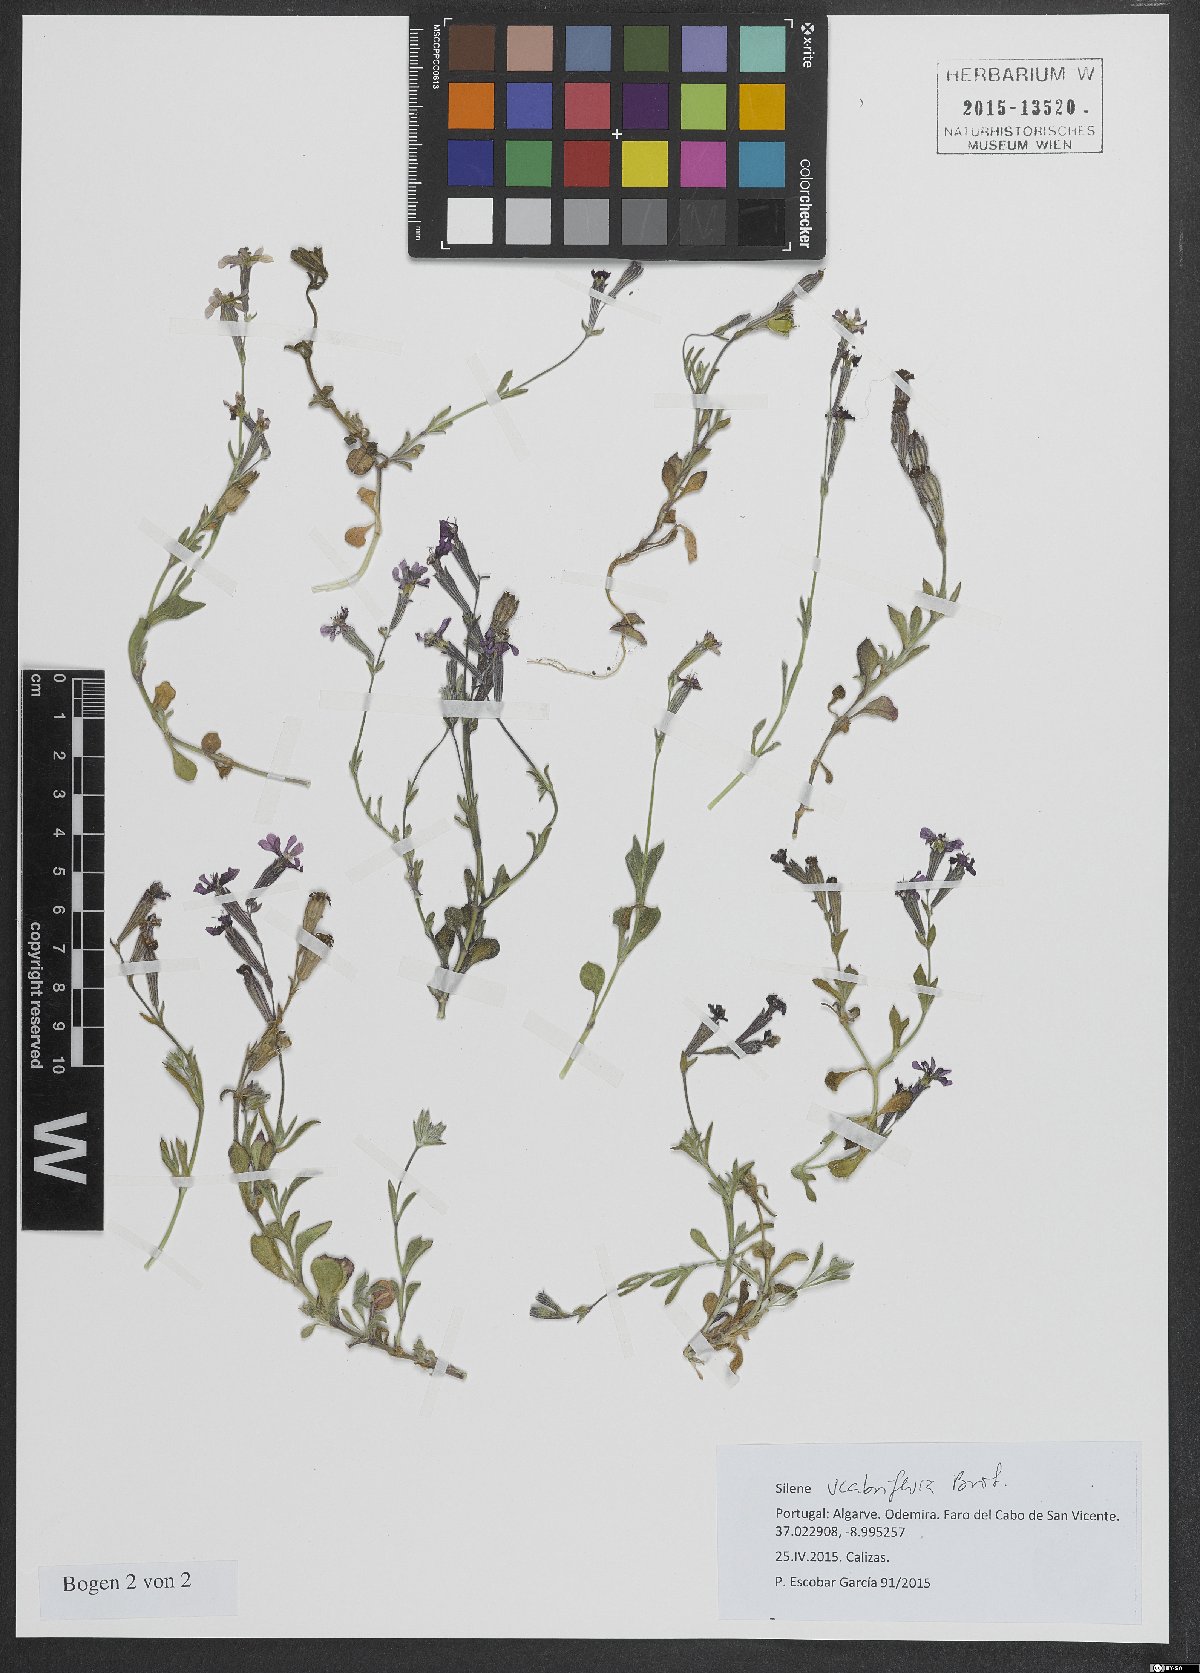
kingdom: Plantae
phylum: Tracheophyta
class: Magnoliopsida
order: Caryophyllales
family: Caryophyllaceae
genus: Silene
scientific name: Silene scabrifolia
